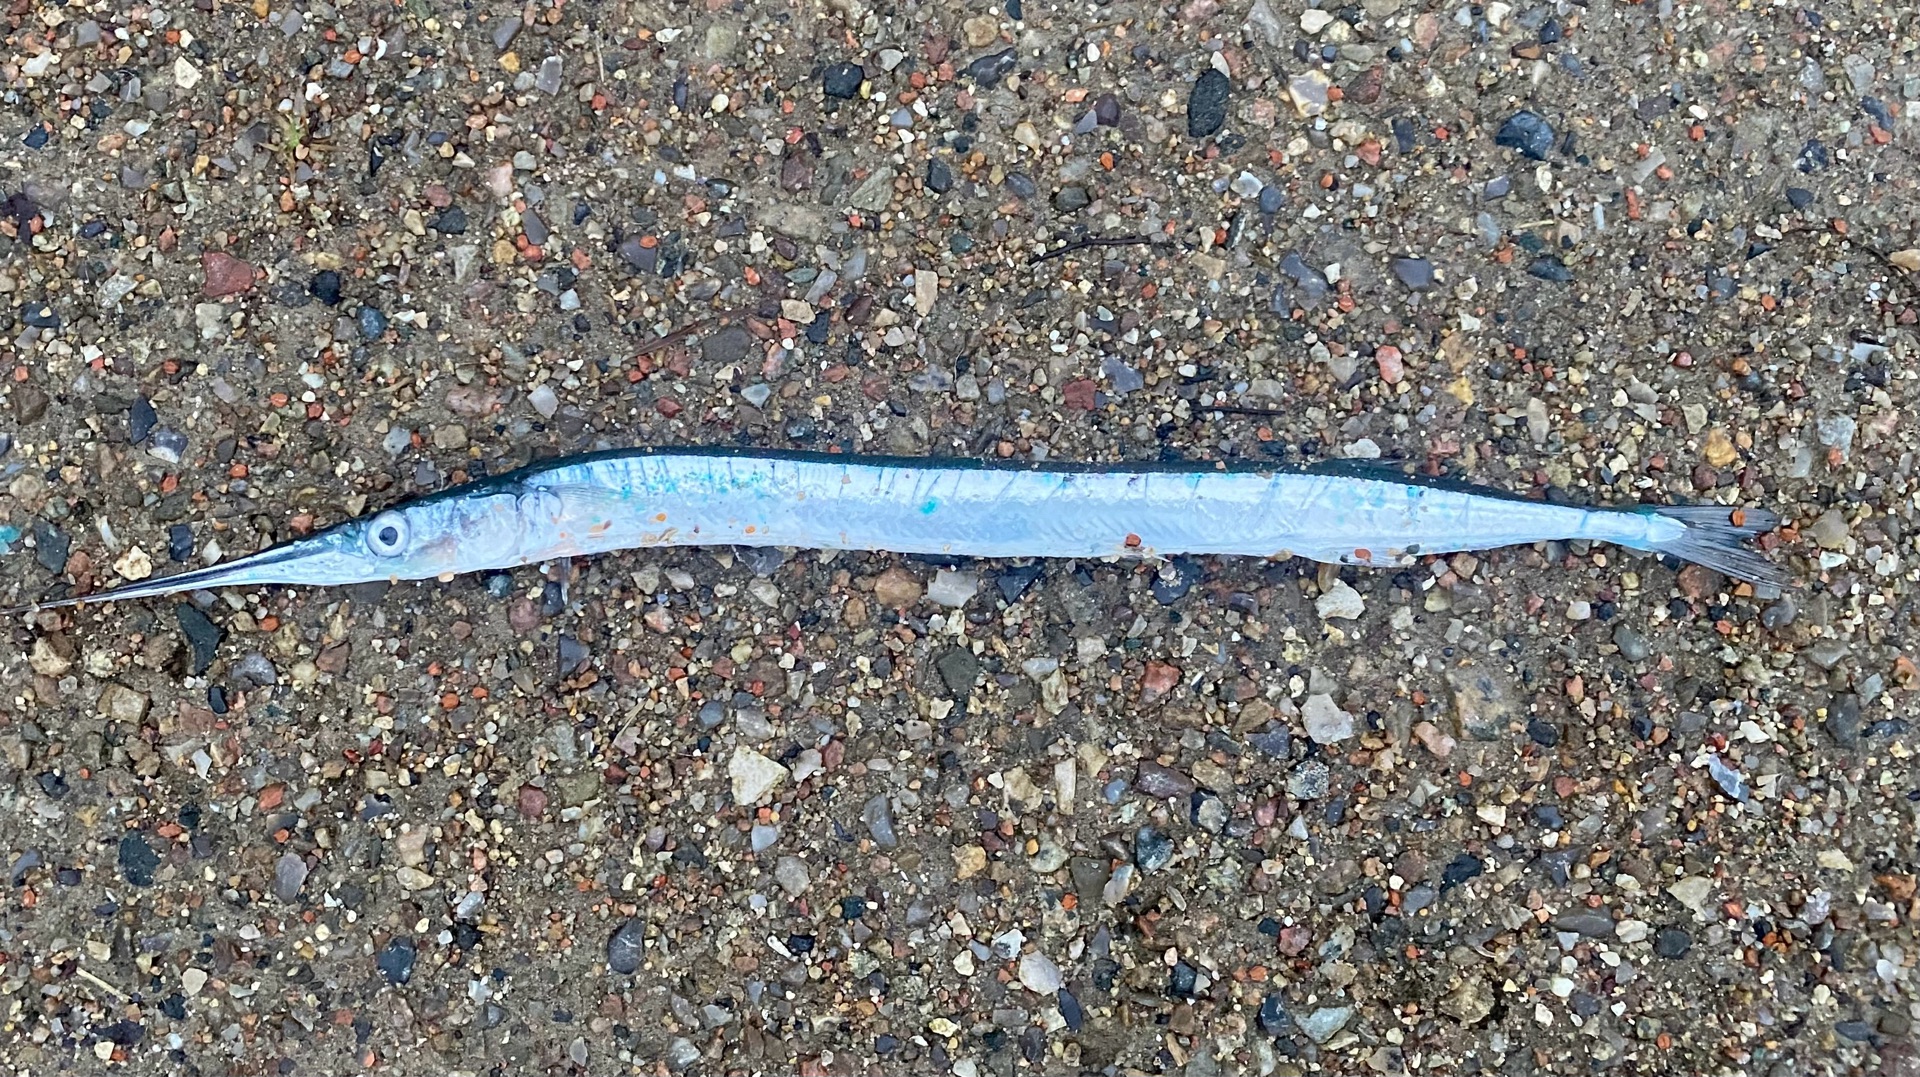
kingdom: Animalia
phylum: Chordata
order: Beloniformes
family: Belonidae
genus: Belone
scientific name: Belone belone
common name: Hornfisk
